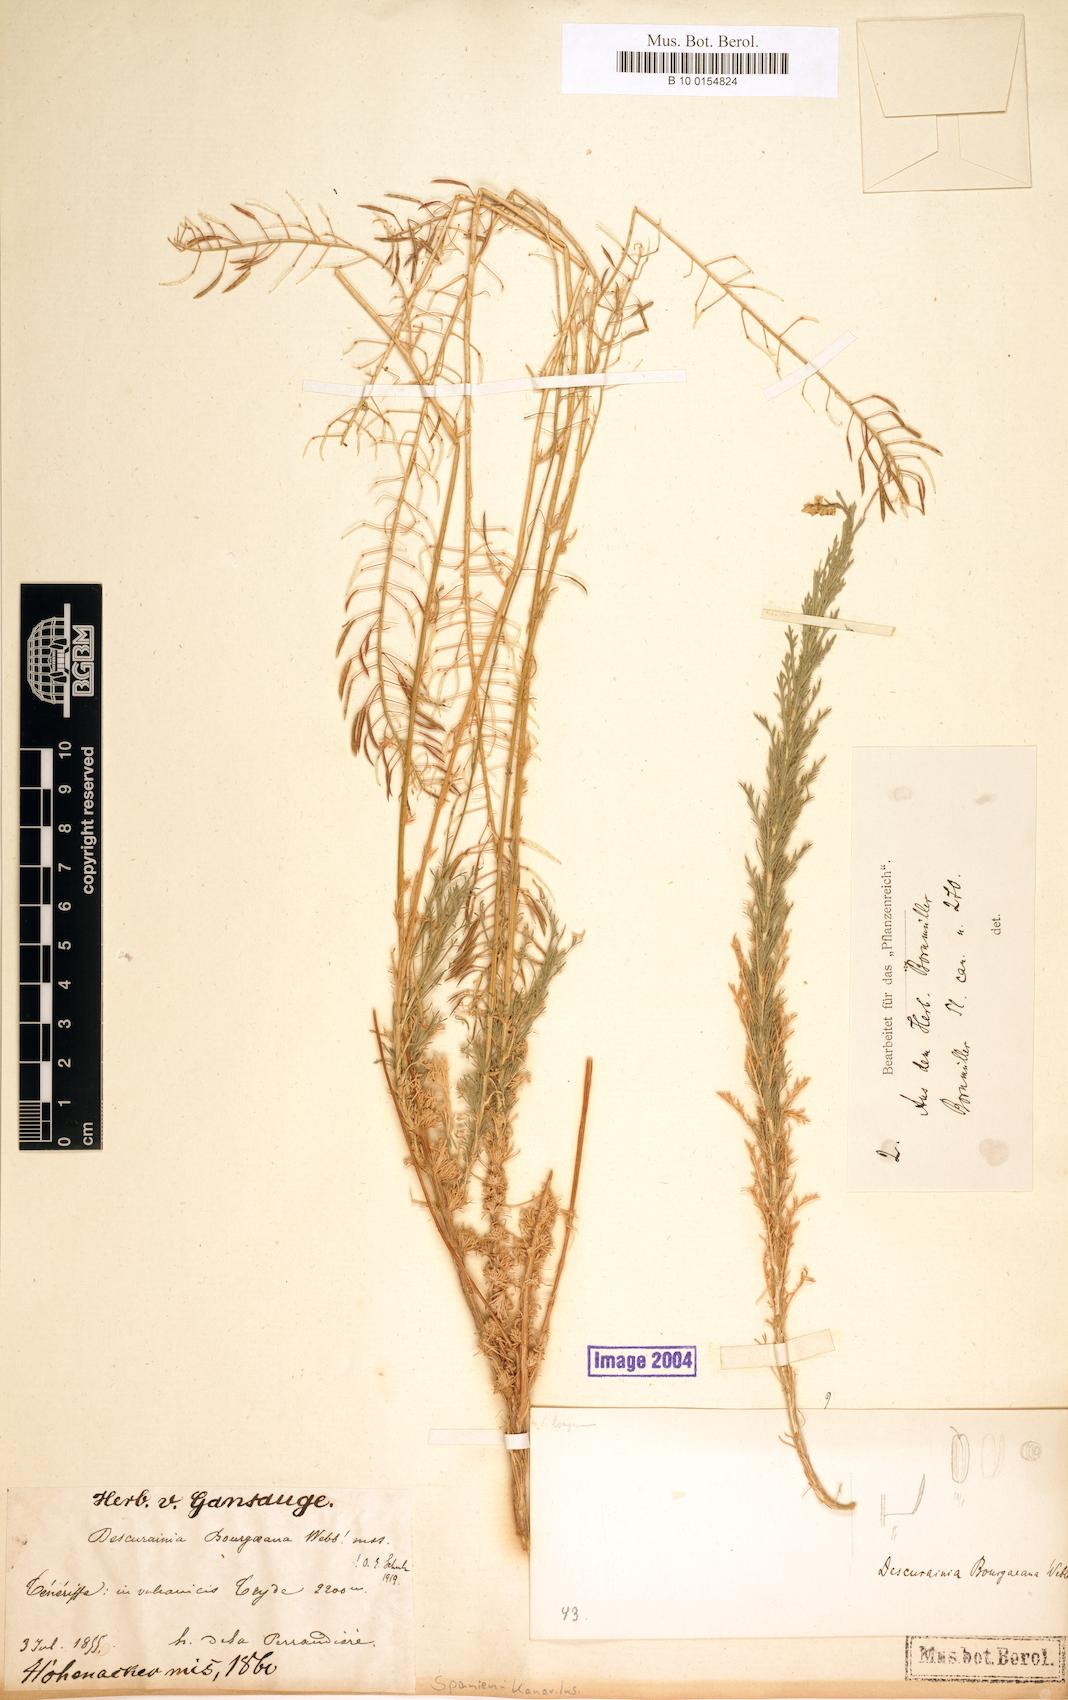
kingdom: Plantae
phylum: Tracheophyta
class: Magnoliopsida
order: Brassicales
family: Brassicaceae
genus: Descurainia
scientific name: Descurainia bourgaeana
